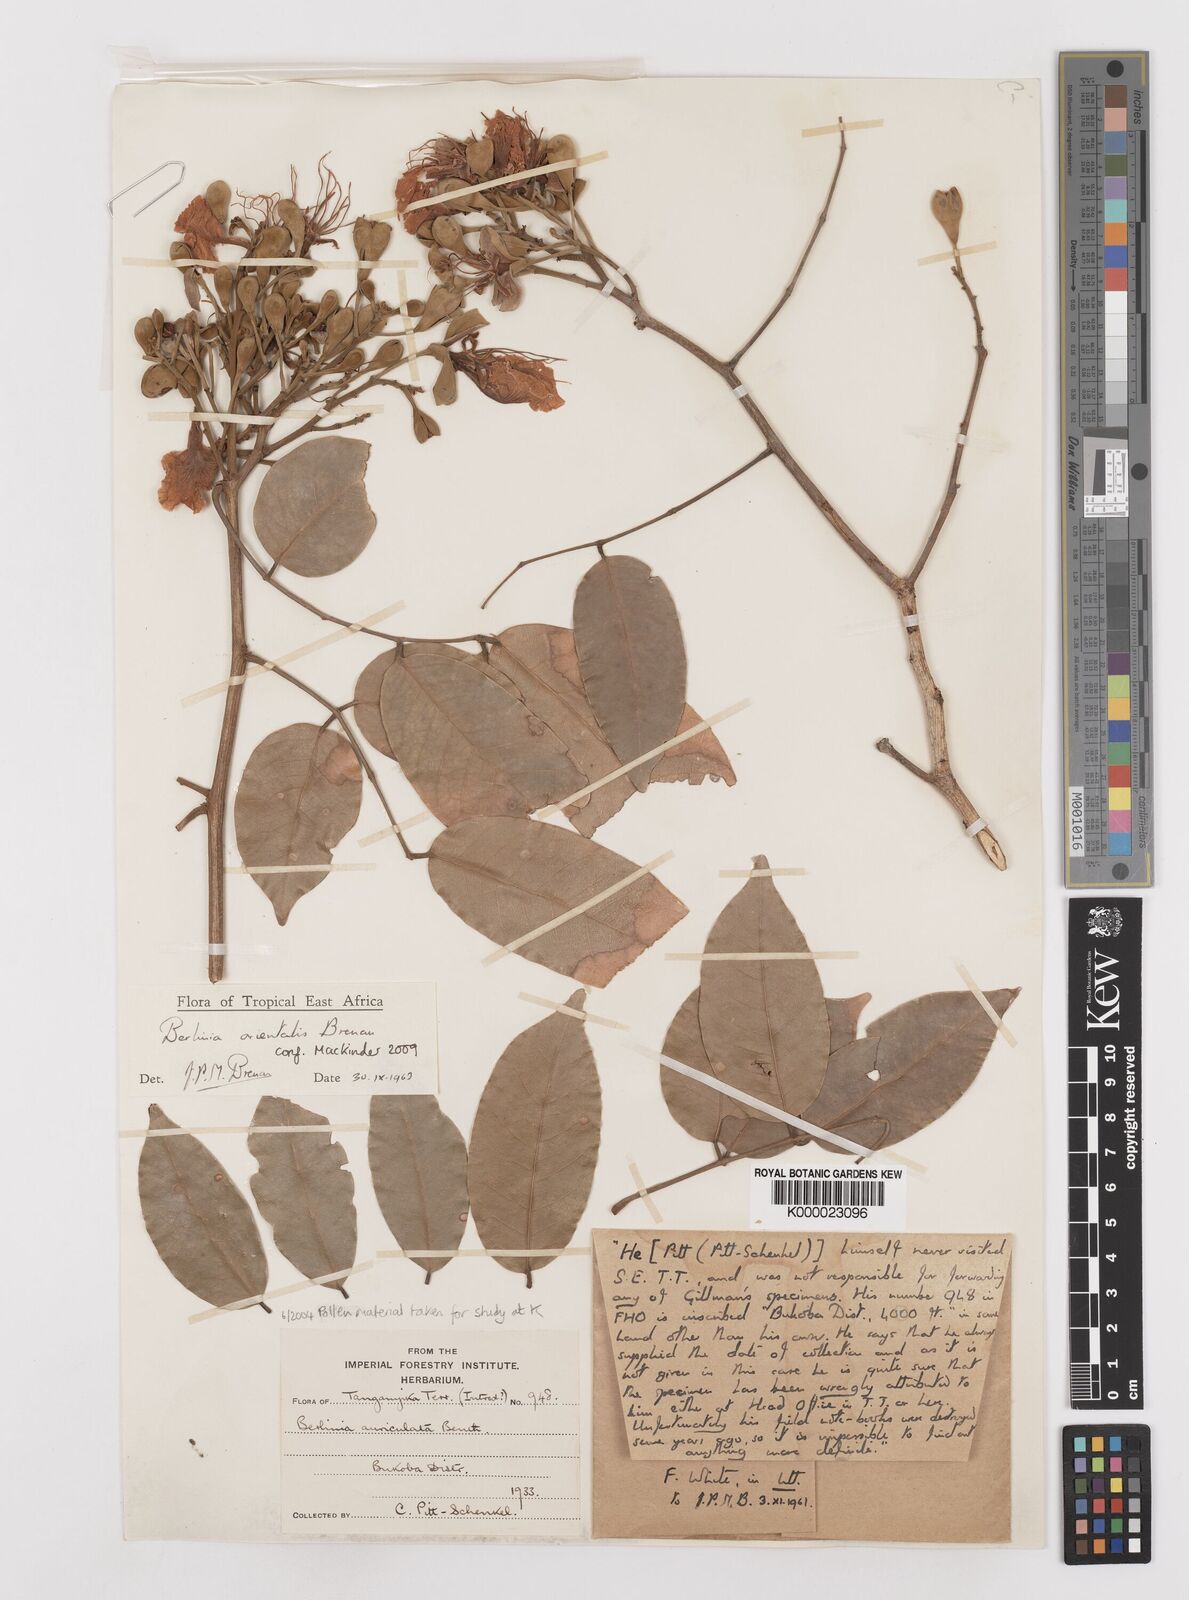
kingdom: Plantae
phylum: Tracheophyta
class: Magnoliopsida
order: Fabales
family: Fabaceae
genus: Berlinia
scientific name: Berlinia orientalis
